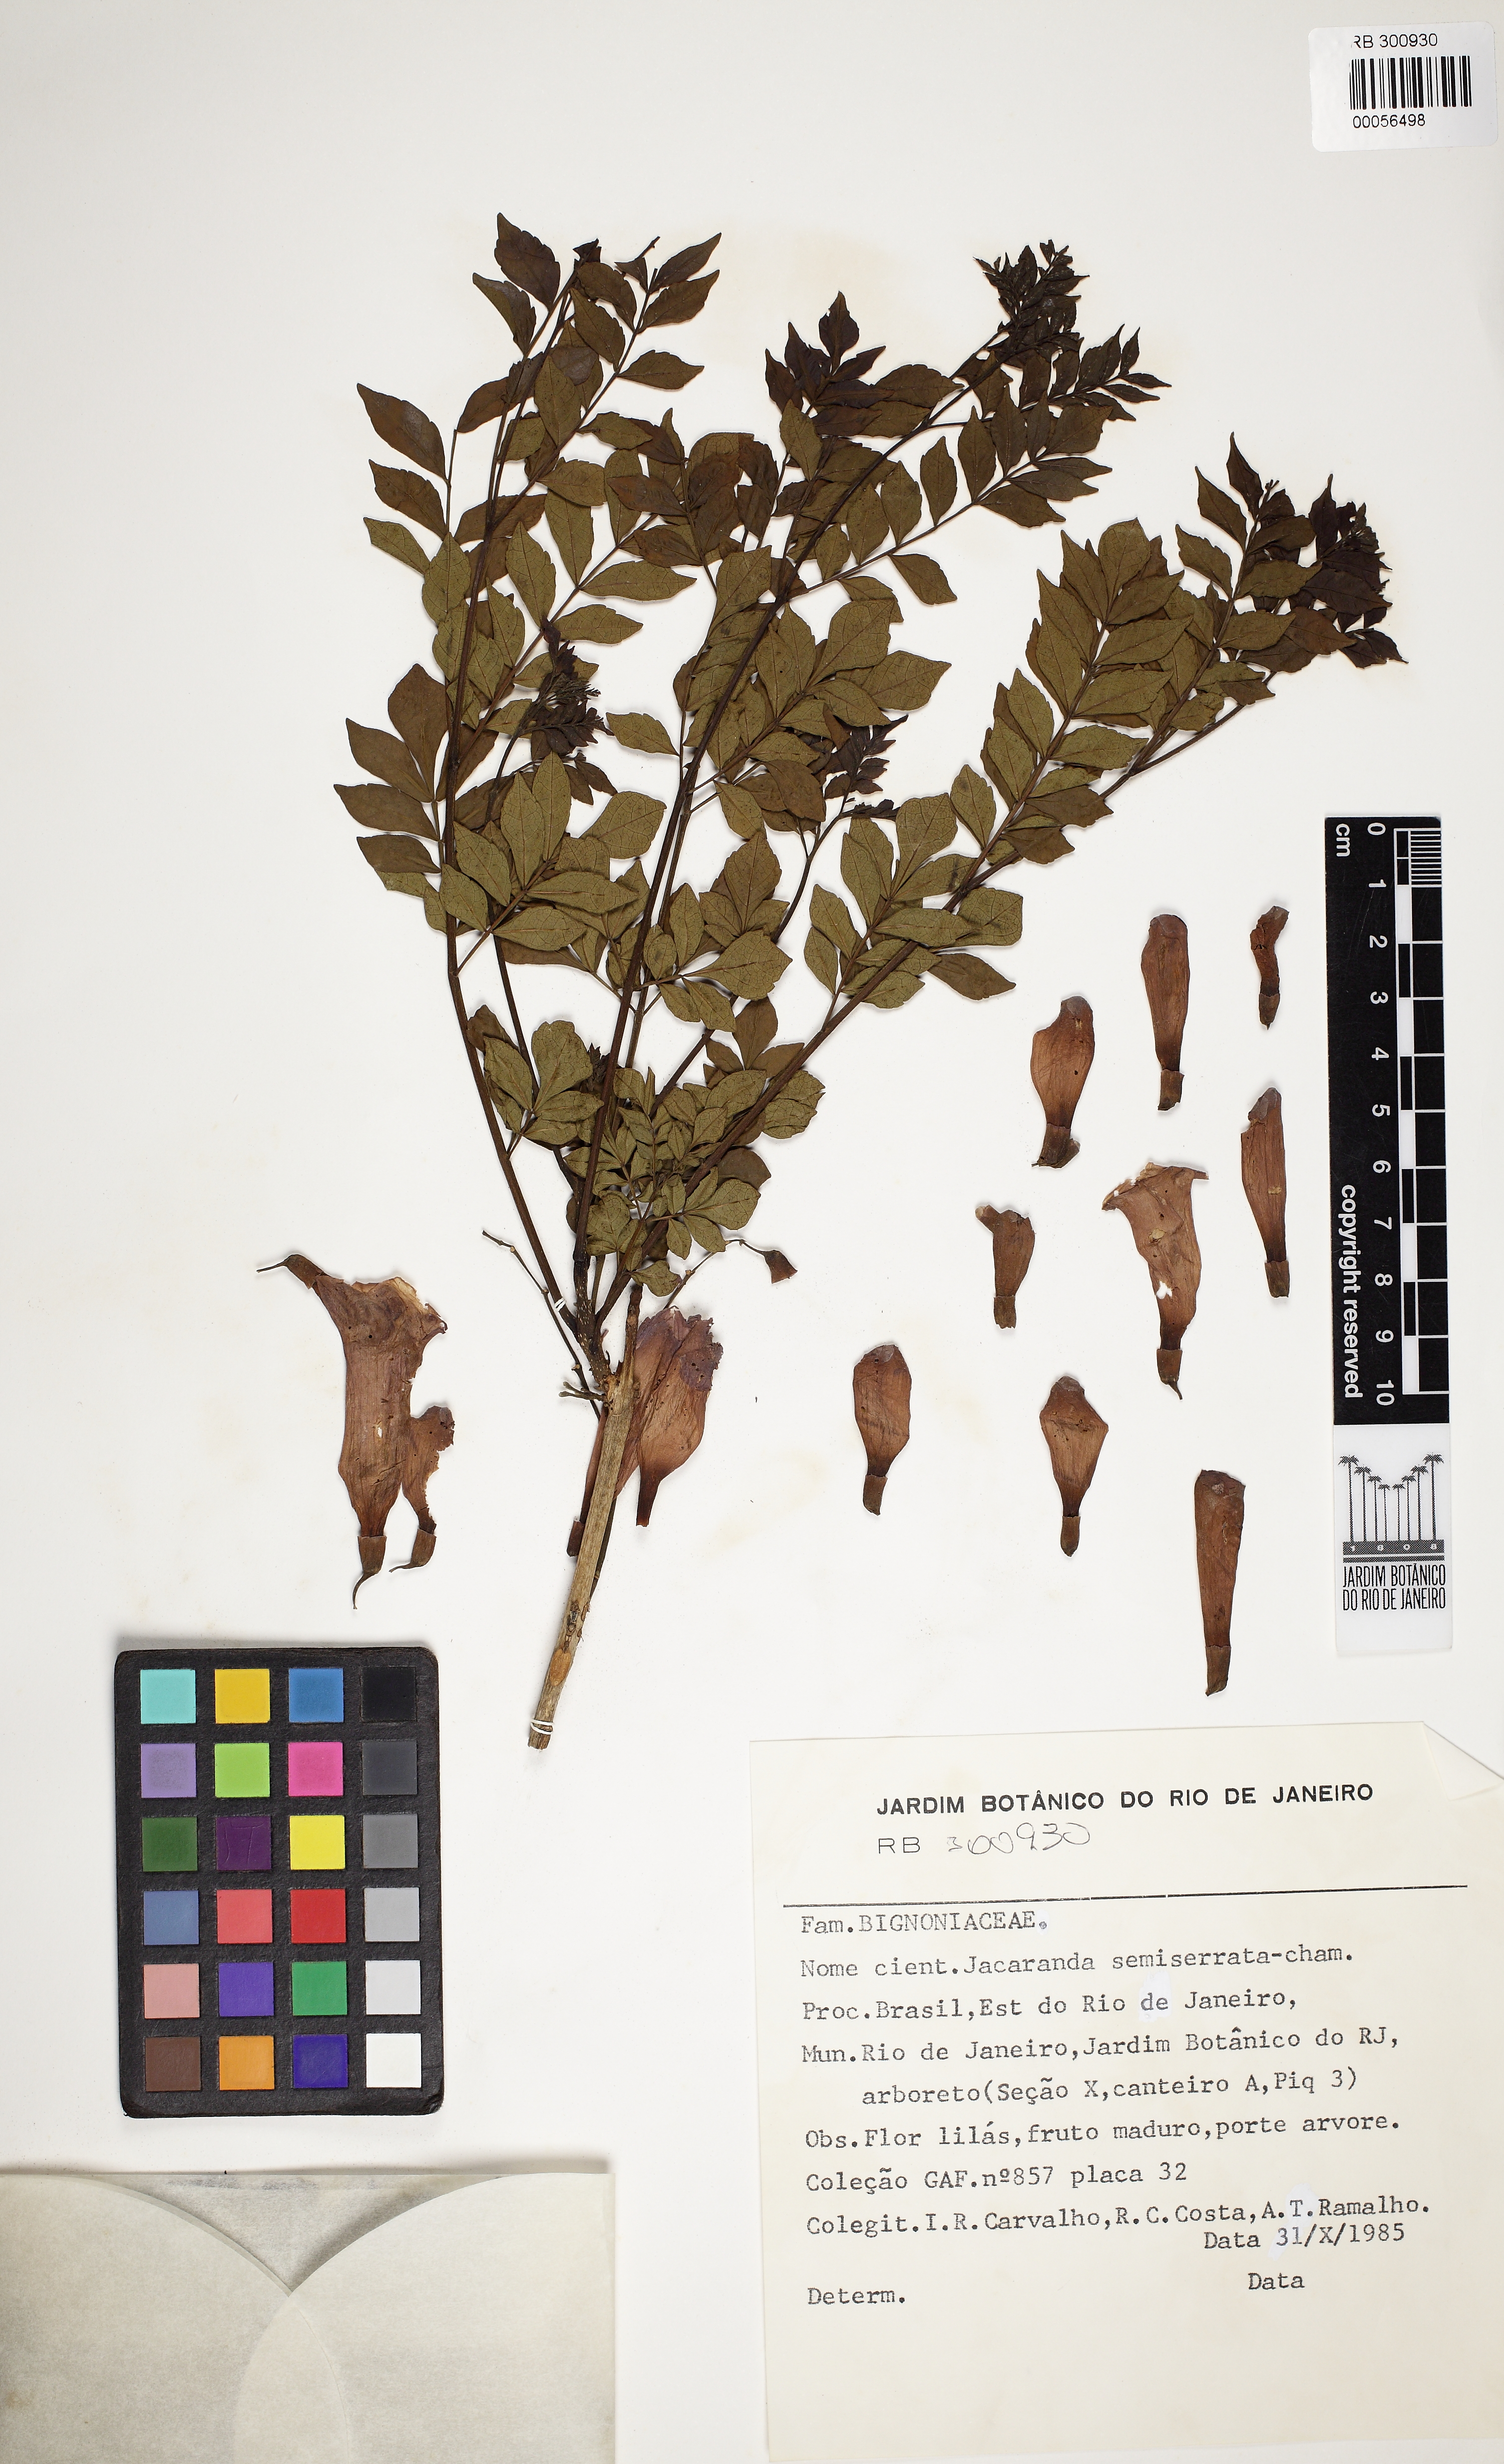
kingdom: Plantae
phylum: Tracheophyta
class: Magnoliopsida
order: Lamiales
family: Bignoniaceae
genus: Jacaranda
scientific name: Jacaranda puberula
